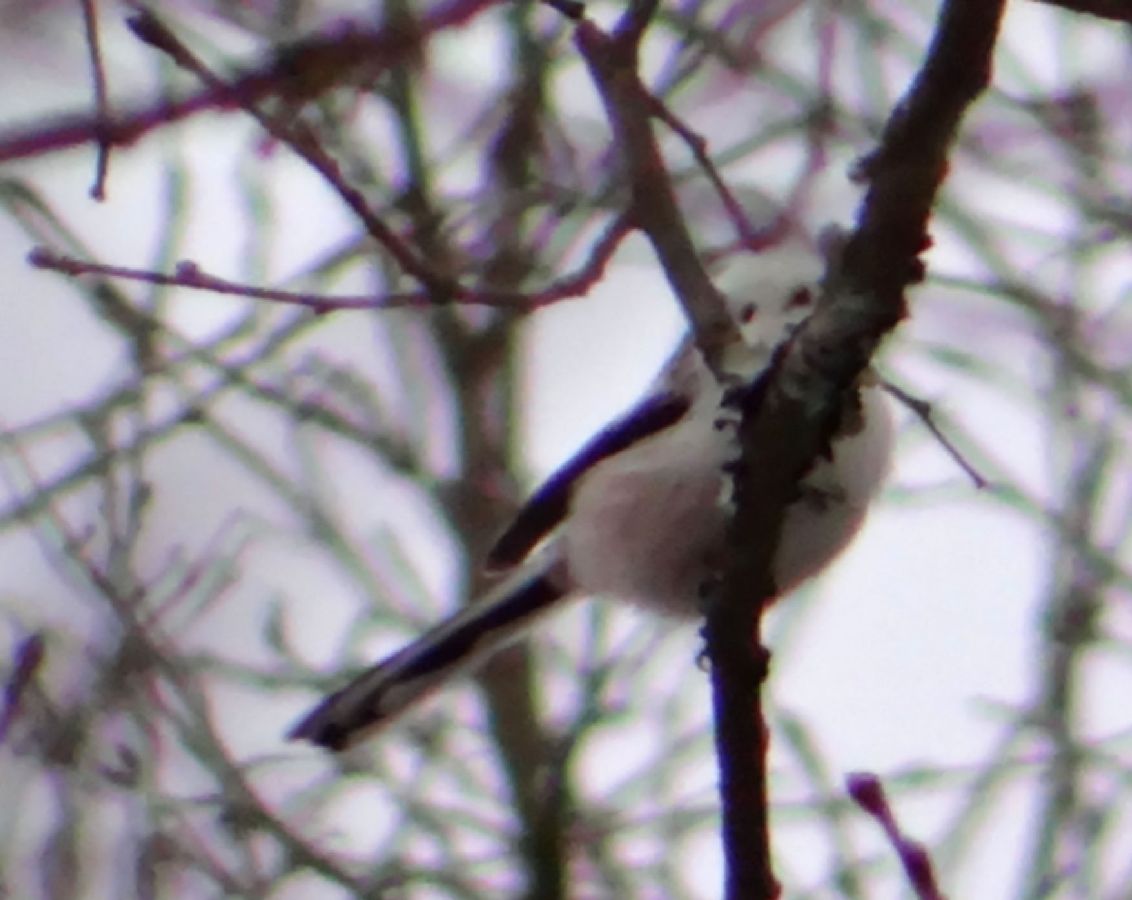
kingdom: Animalia
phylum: Chordata
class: Aves
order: Passeriformes
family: Aegithalidae
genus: Aegithalos
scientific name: Aegithalos caudatus
